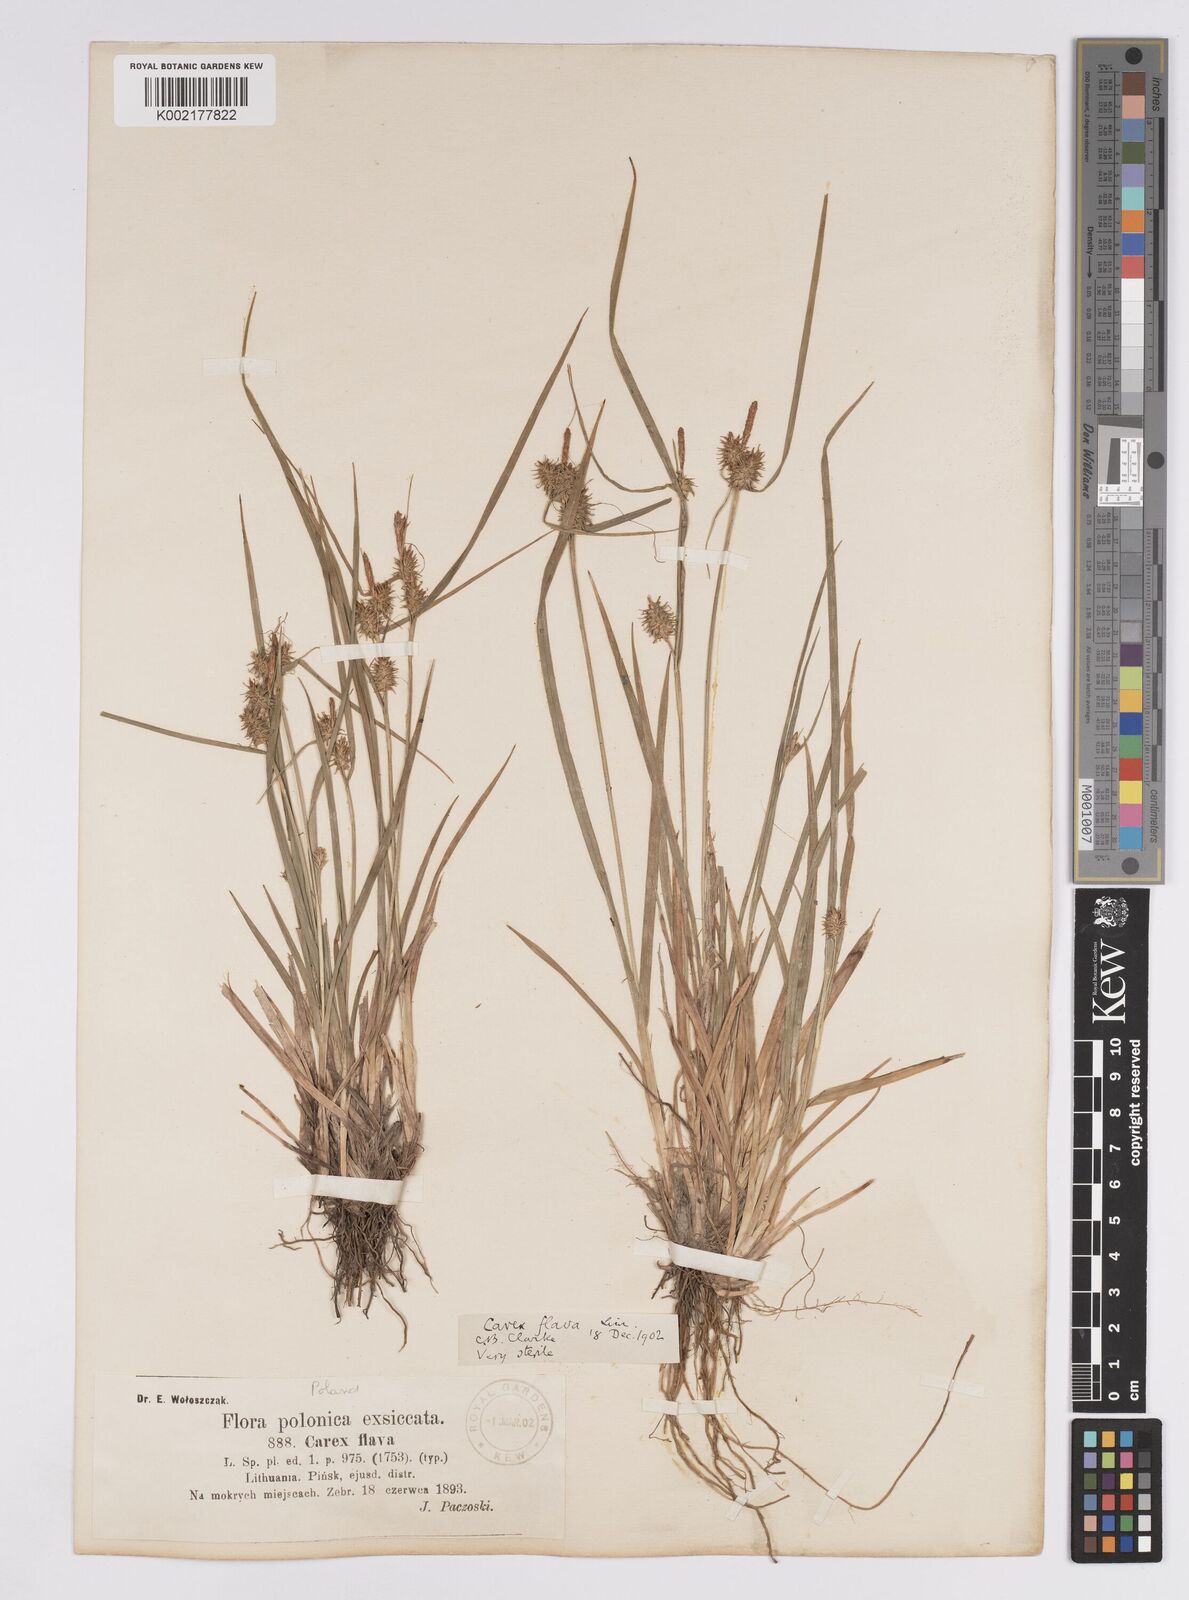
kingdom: Plantae
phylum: Tracheophyta
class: Liliopsida
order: Poales
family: Cyperaceae
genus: Carex
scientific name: Carex flava
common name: Large yellow-sedge
